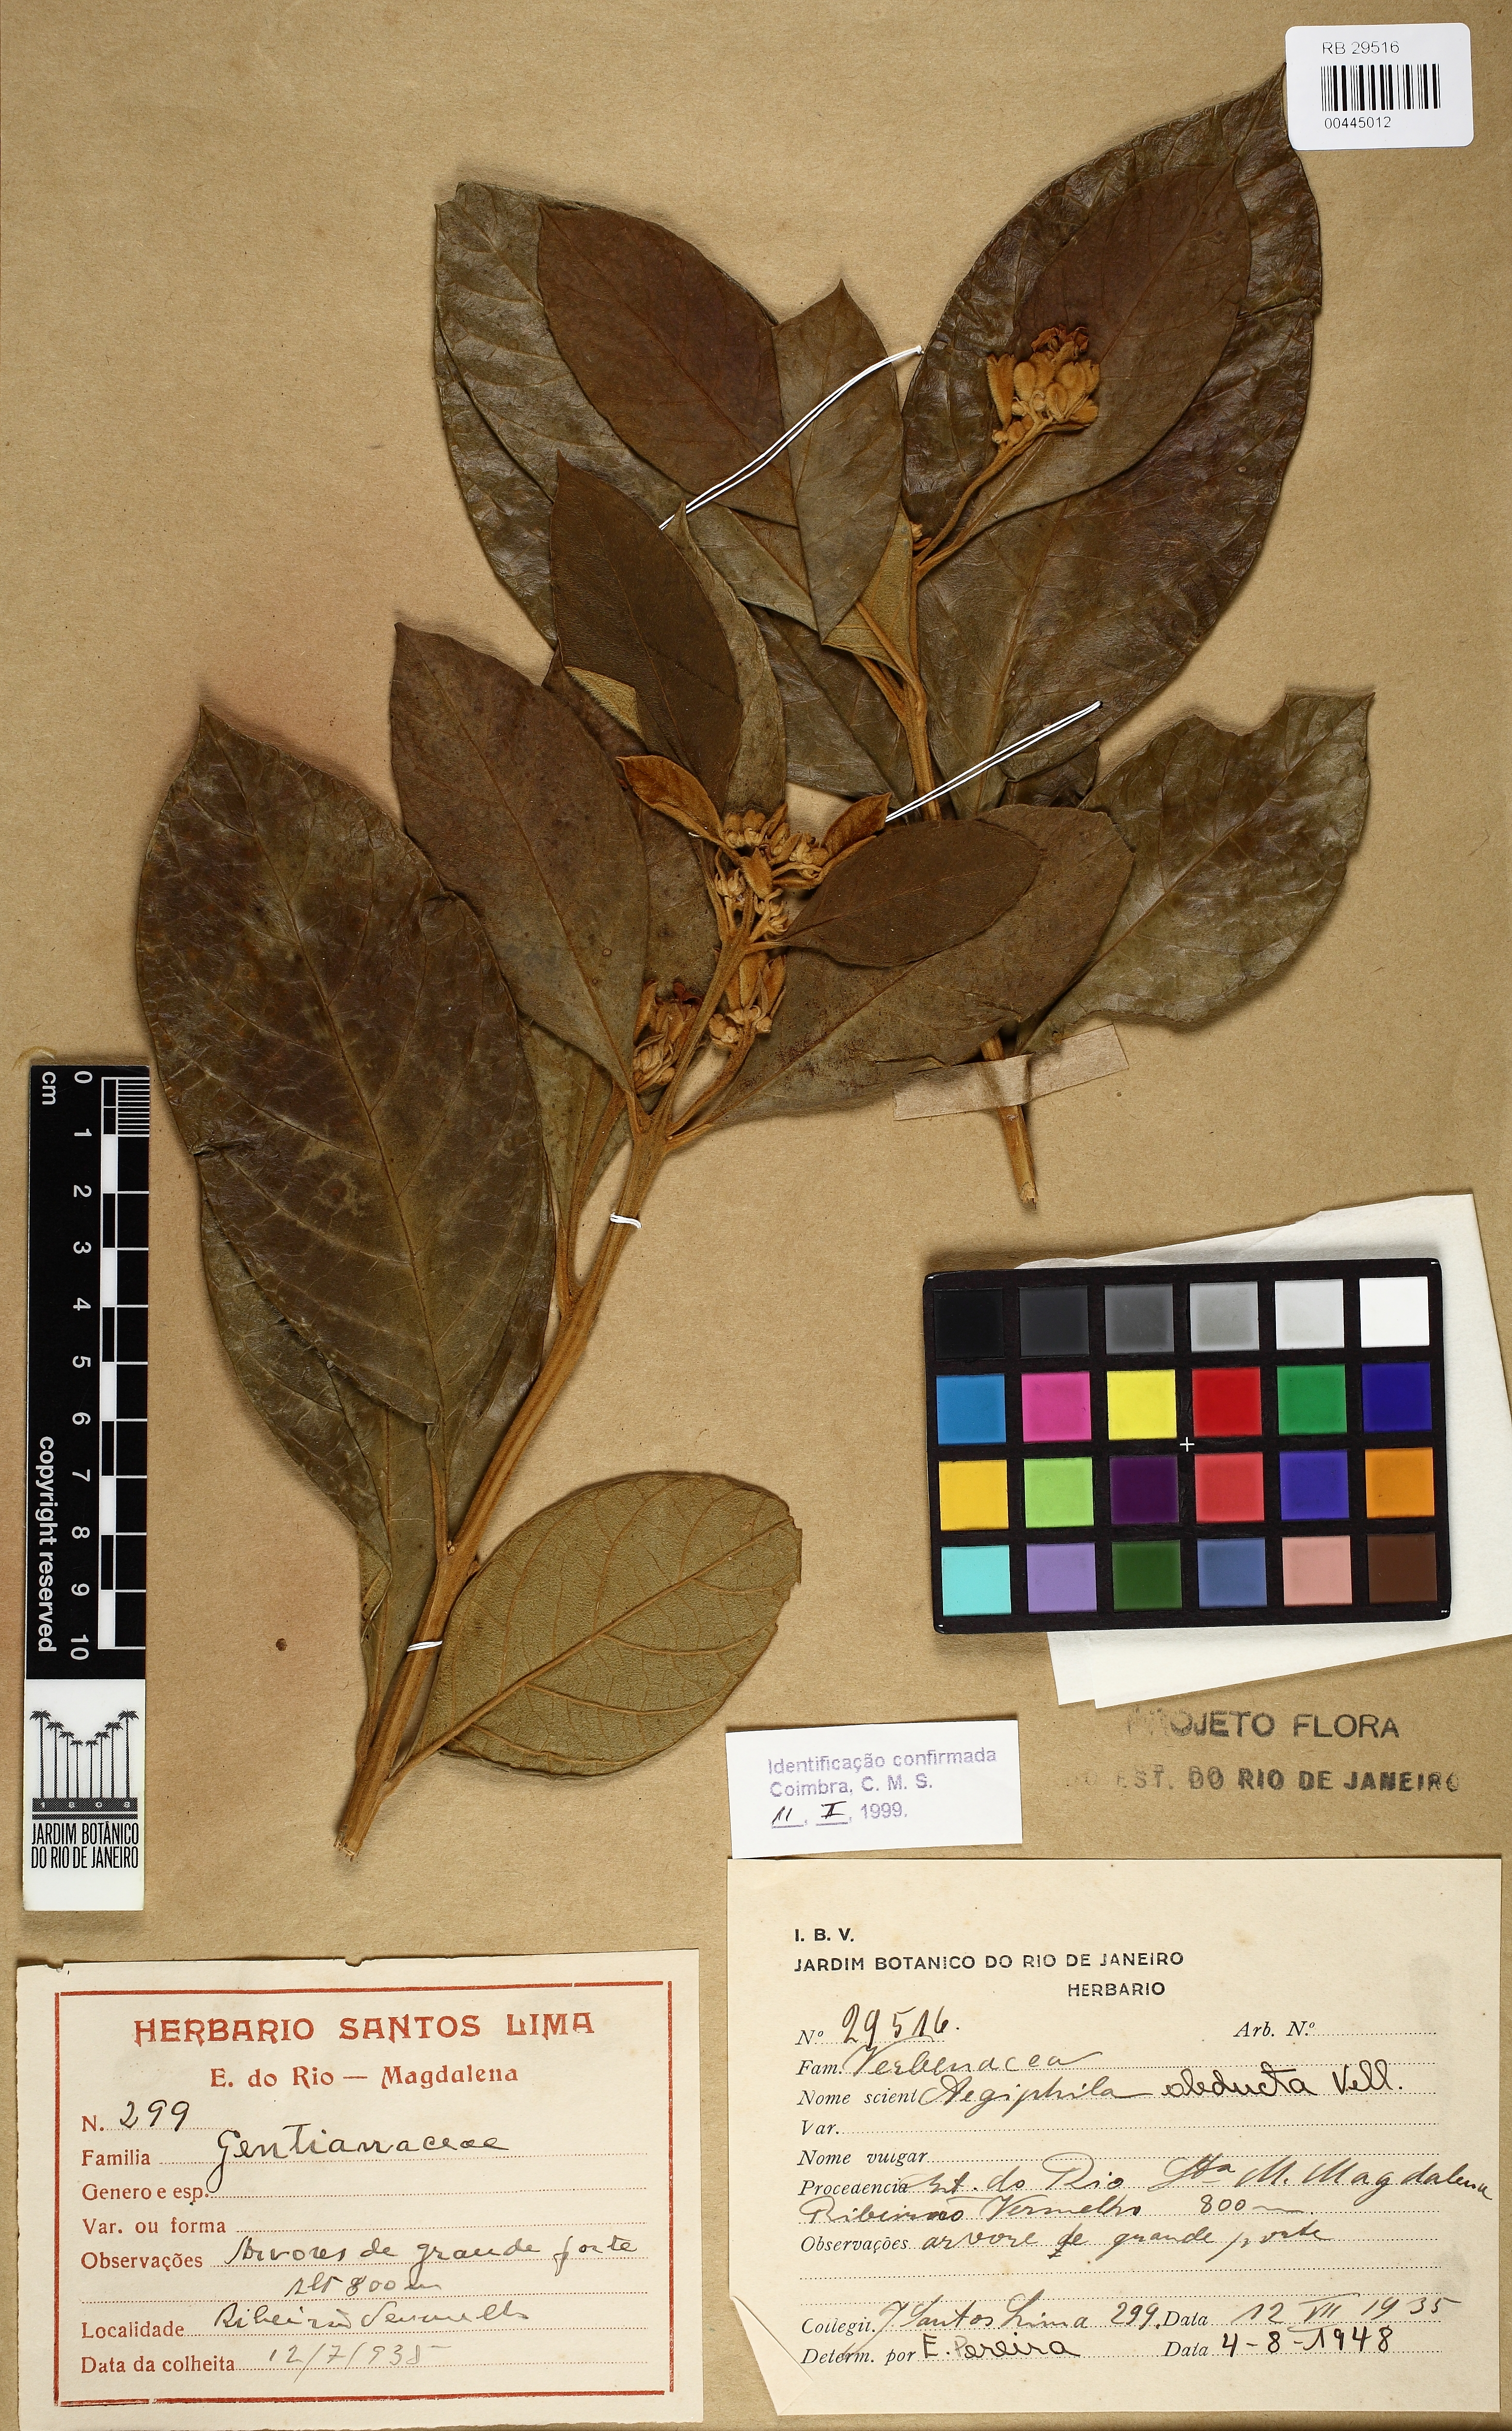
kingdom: Plantae
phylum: Tracheophyta
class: Magnoliopsida
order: Lamiales
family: Lamiaceae
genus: Aegiphila
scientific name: Aegiphila obducta
